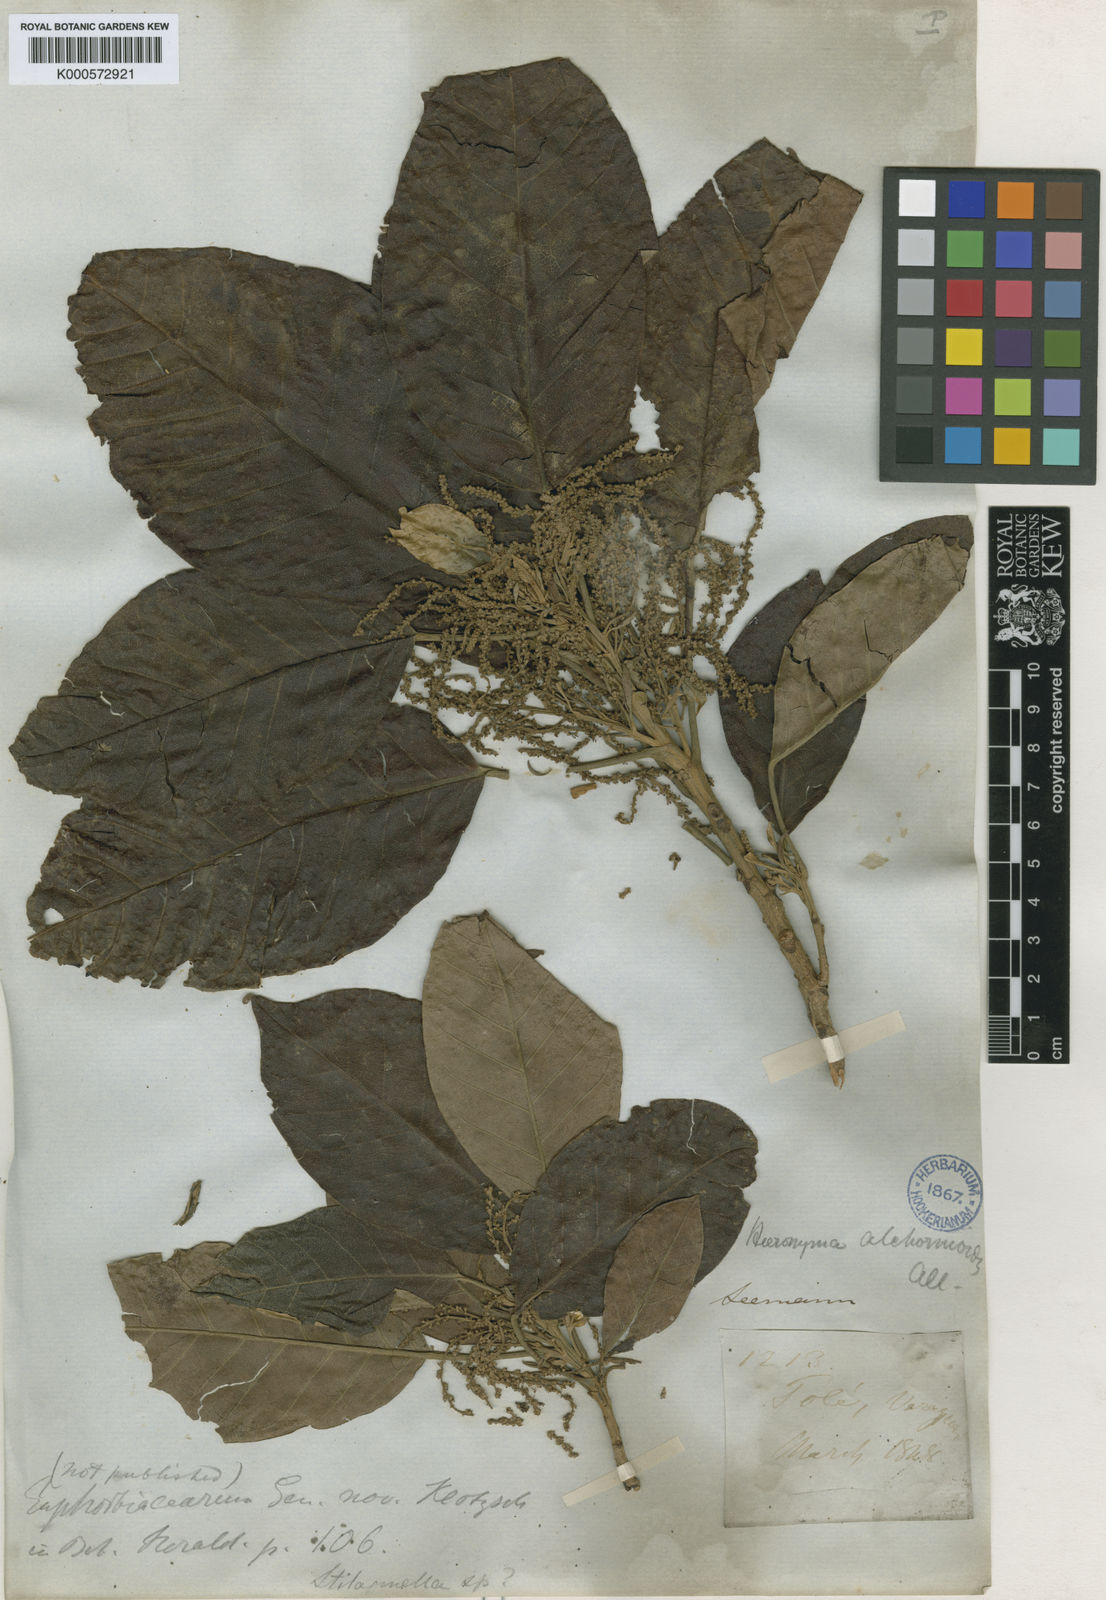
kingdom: Plantae
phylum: Tracheophyta
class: Magnoliopsida
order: Malpighiales
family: Phyllanthaceae
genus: Hieronyma
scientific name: Hieronyma
